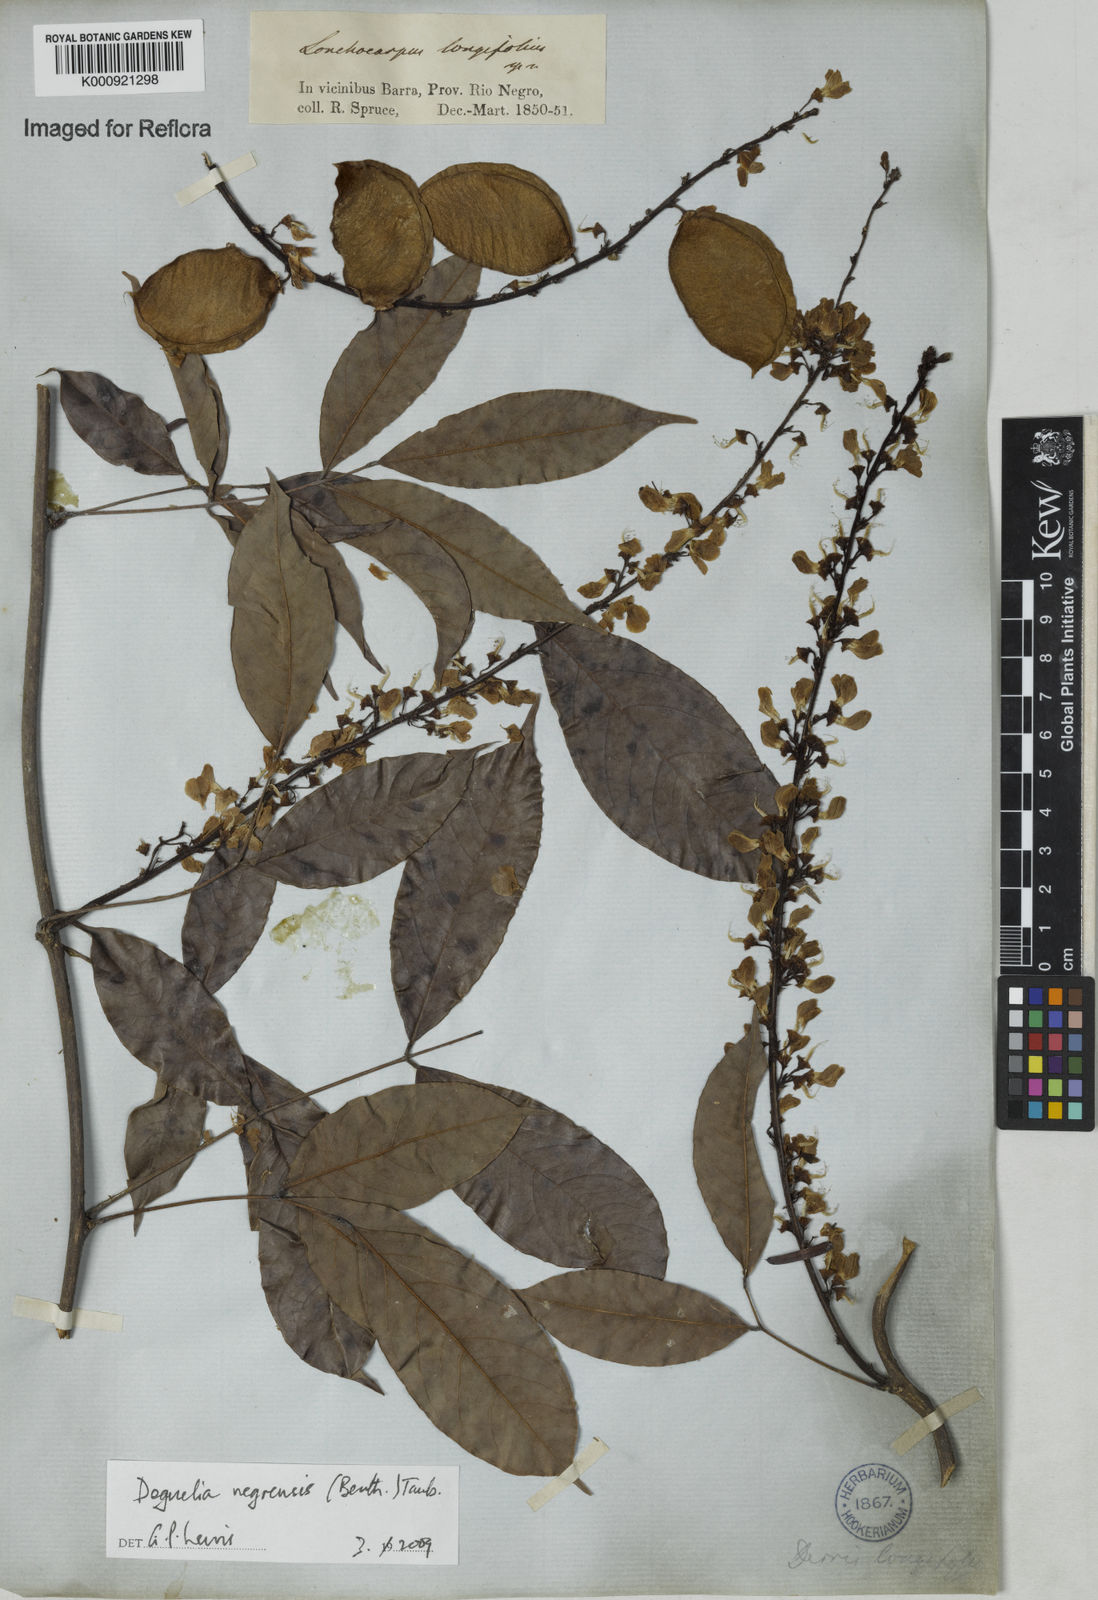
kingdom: Plantae
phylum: Tracheophyta
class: Magnoliopsida
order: Fabales
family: Fabaceae
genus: Deguelia
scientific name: Deguelia negrensis
